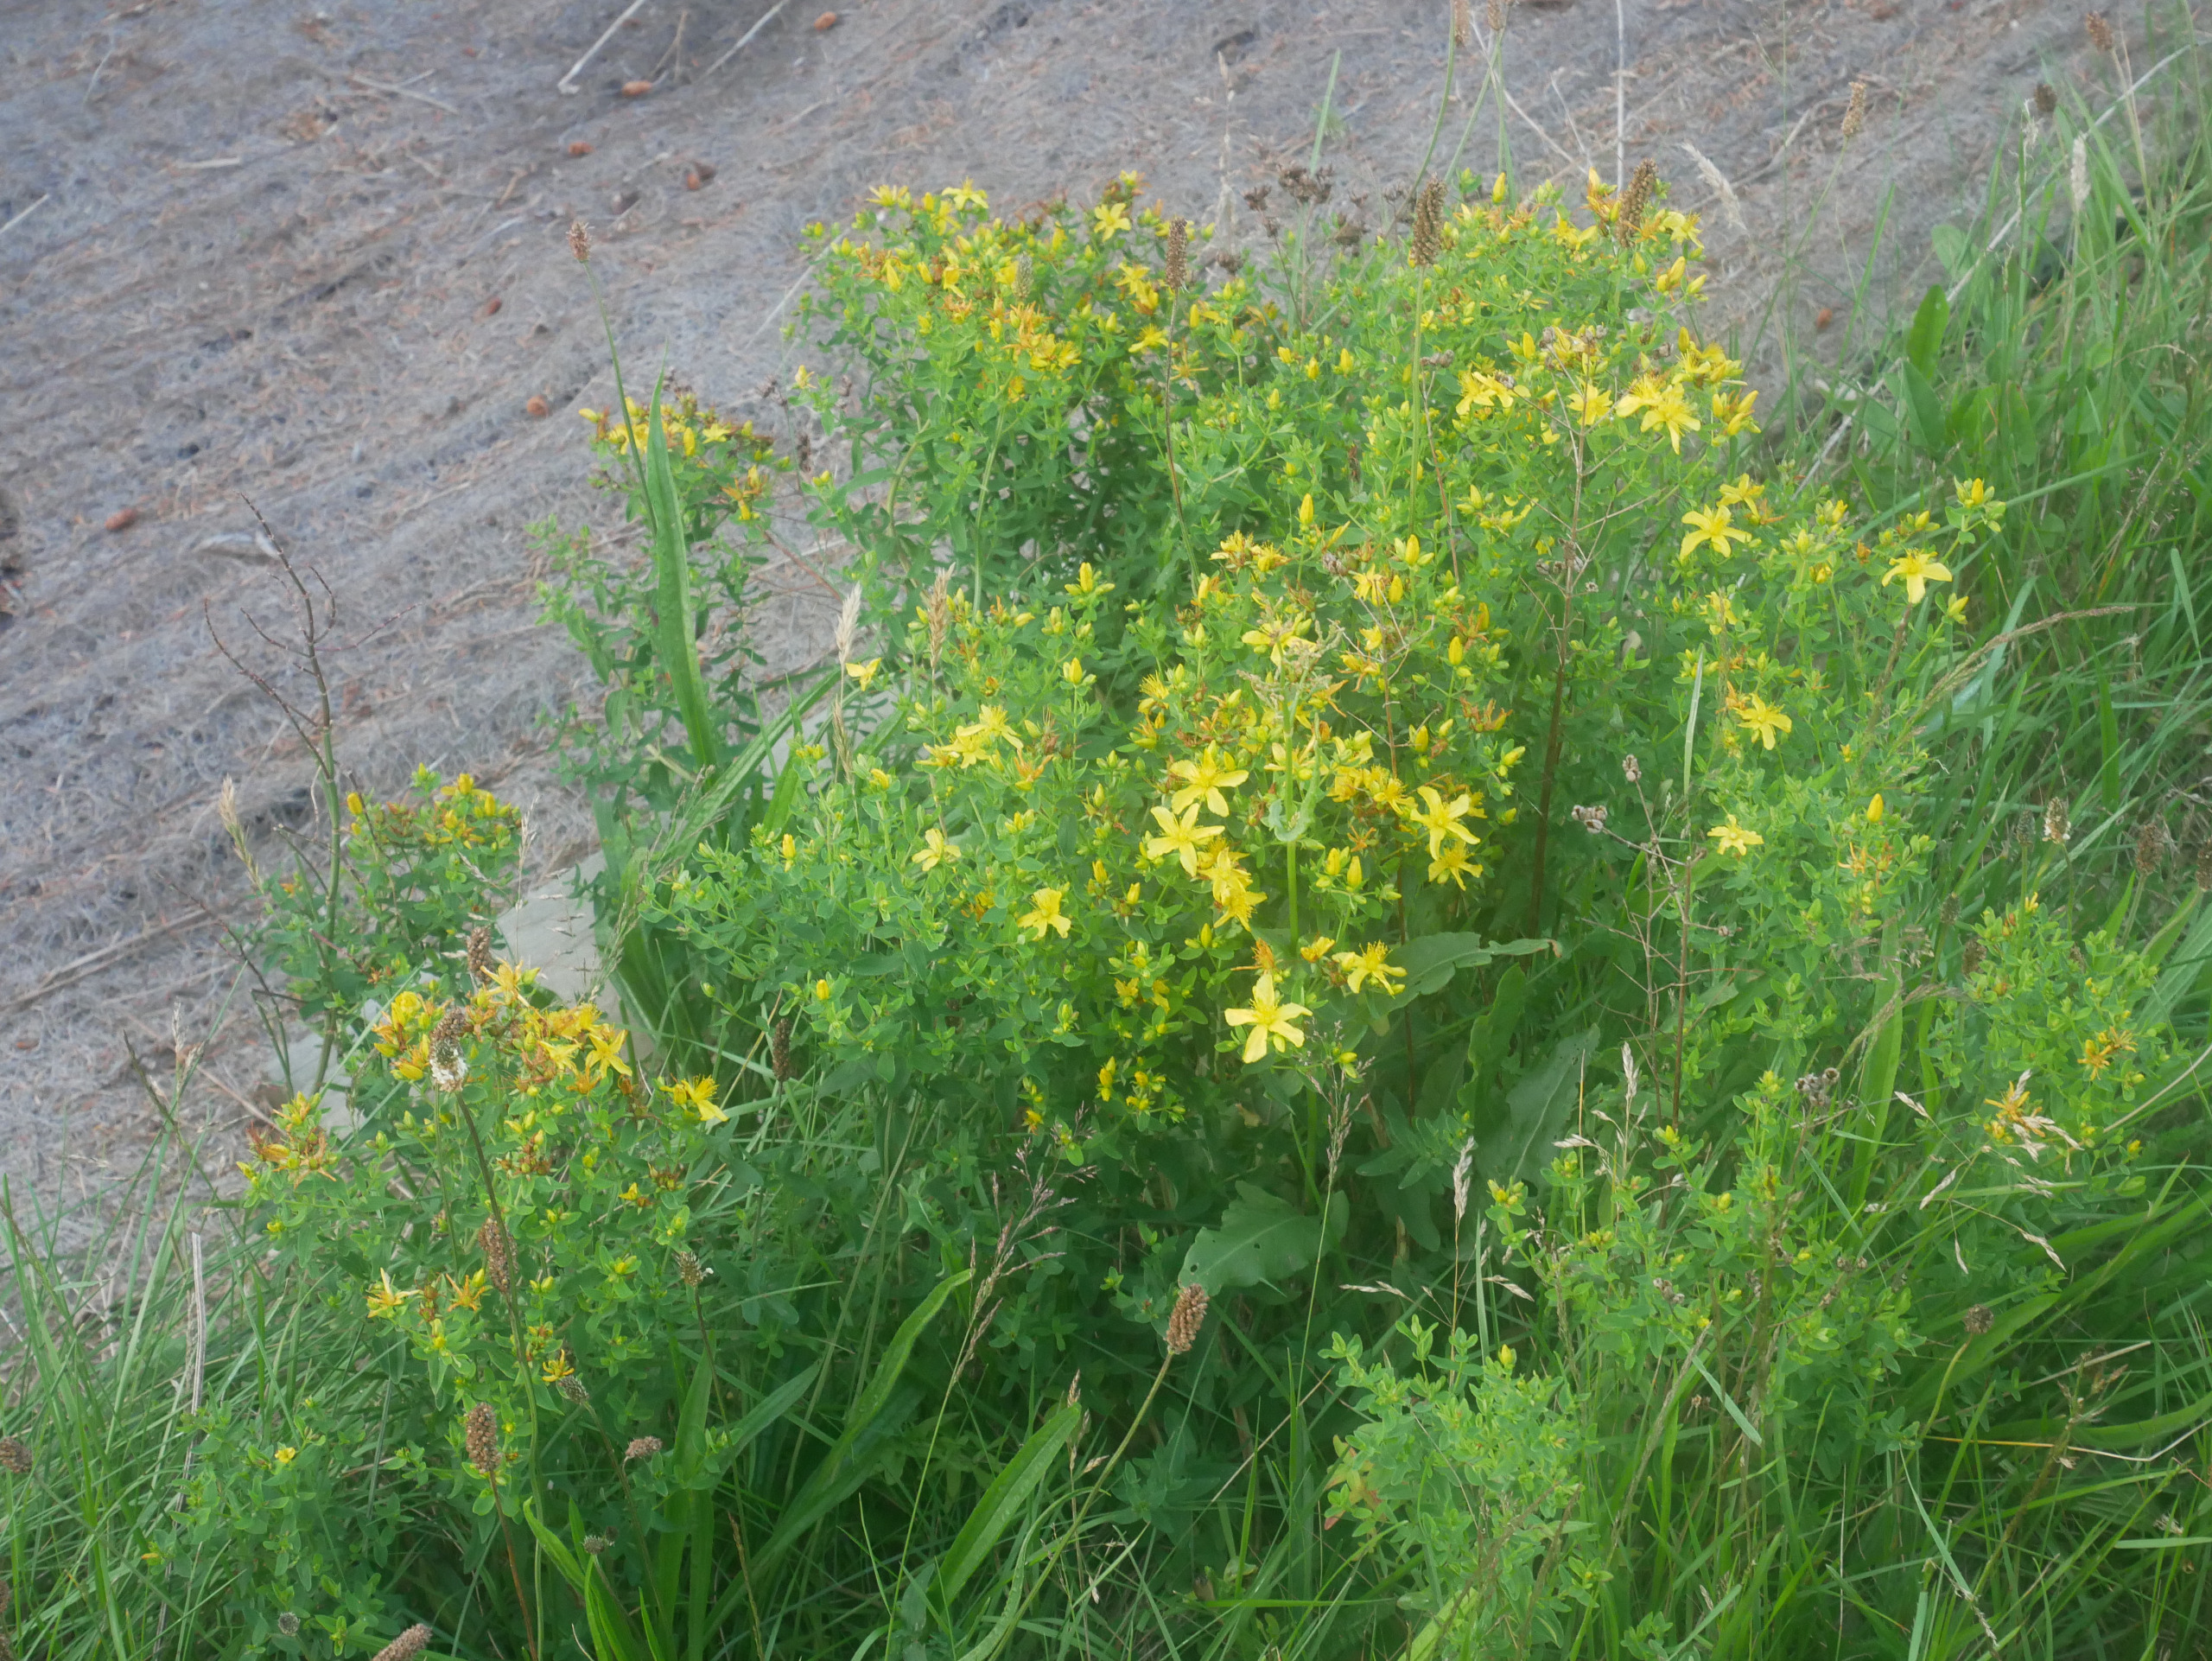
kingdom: Plantae
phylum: Tracheophyta
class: Magnoliopsida
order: Malpighiales
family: Hypericaceae
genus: Hypericum
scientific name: Hypericum perforatum
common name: Prikbladet perikon
